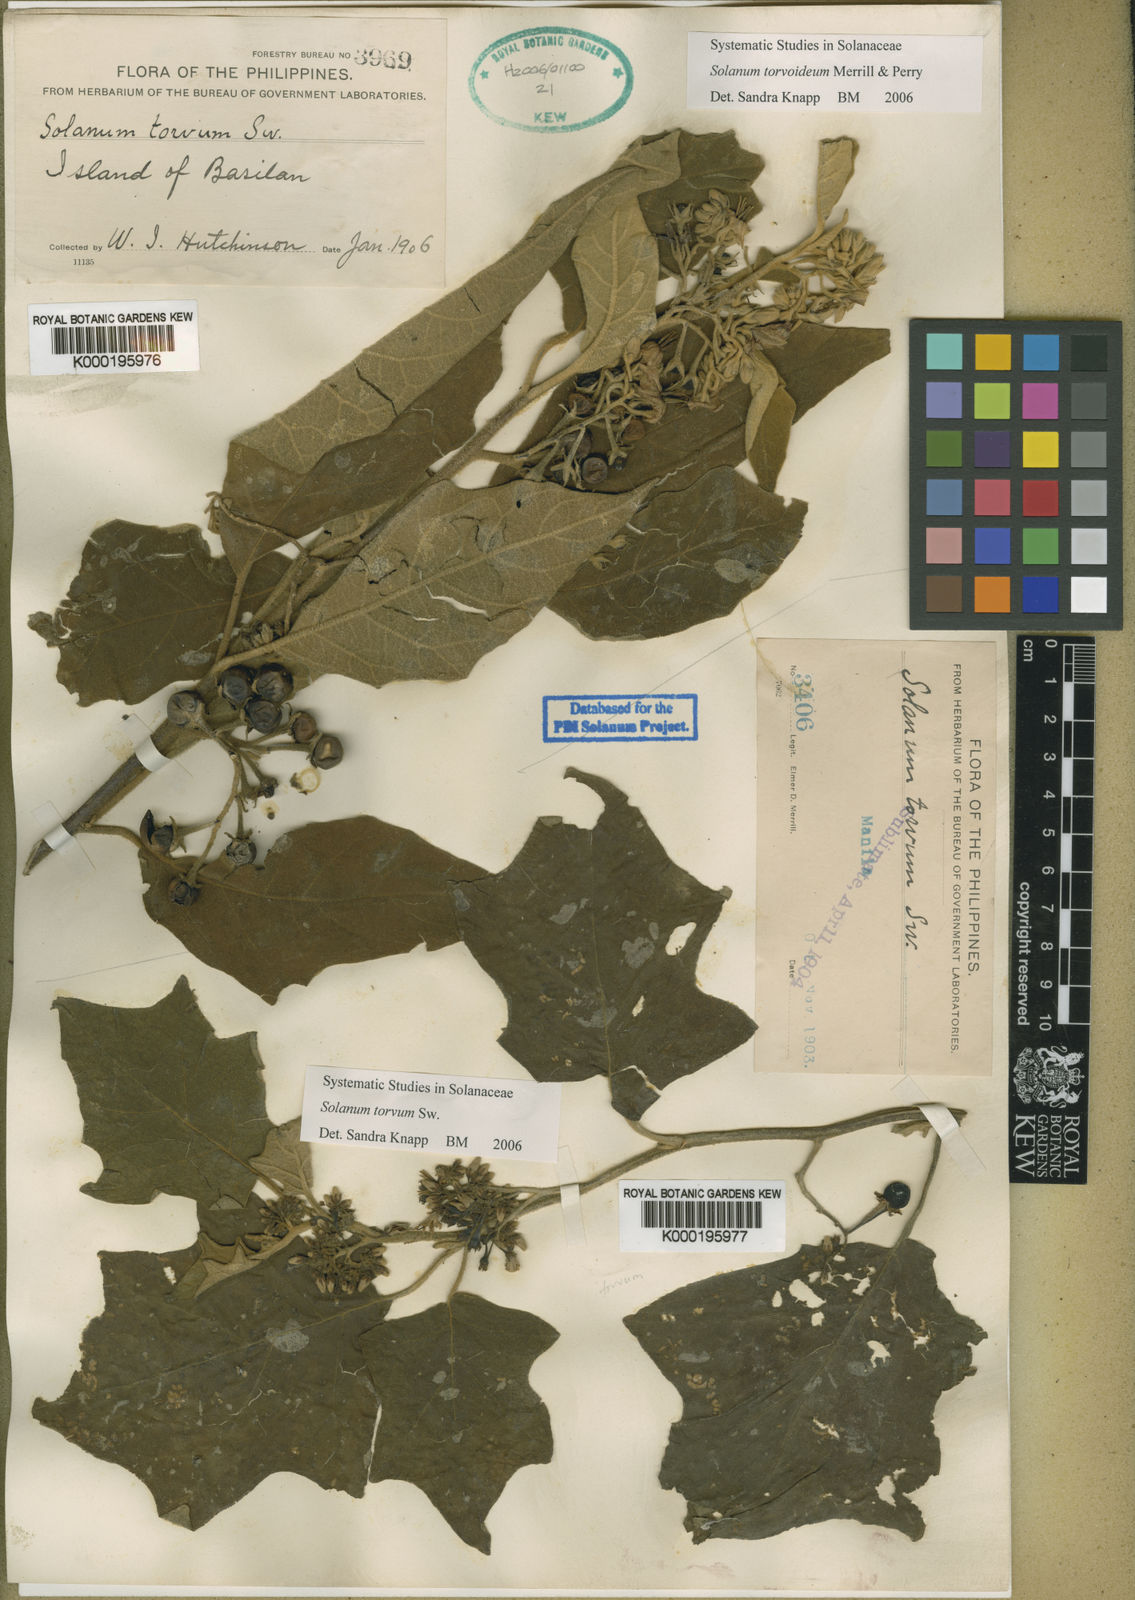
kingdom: Plantae
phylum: Tracheophyta
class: Magnoliopsida
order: Solanales
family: Solanaceae
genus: Solanum
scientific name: Solanum torvum
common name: Turkey berry
